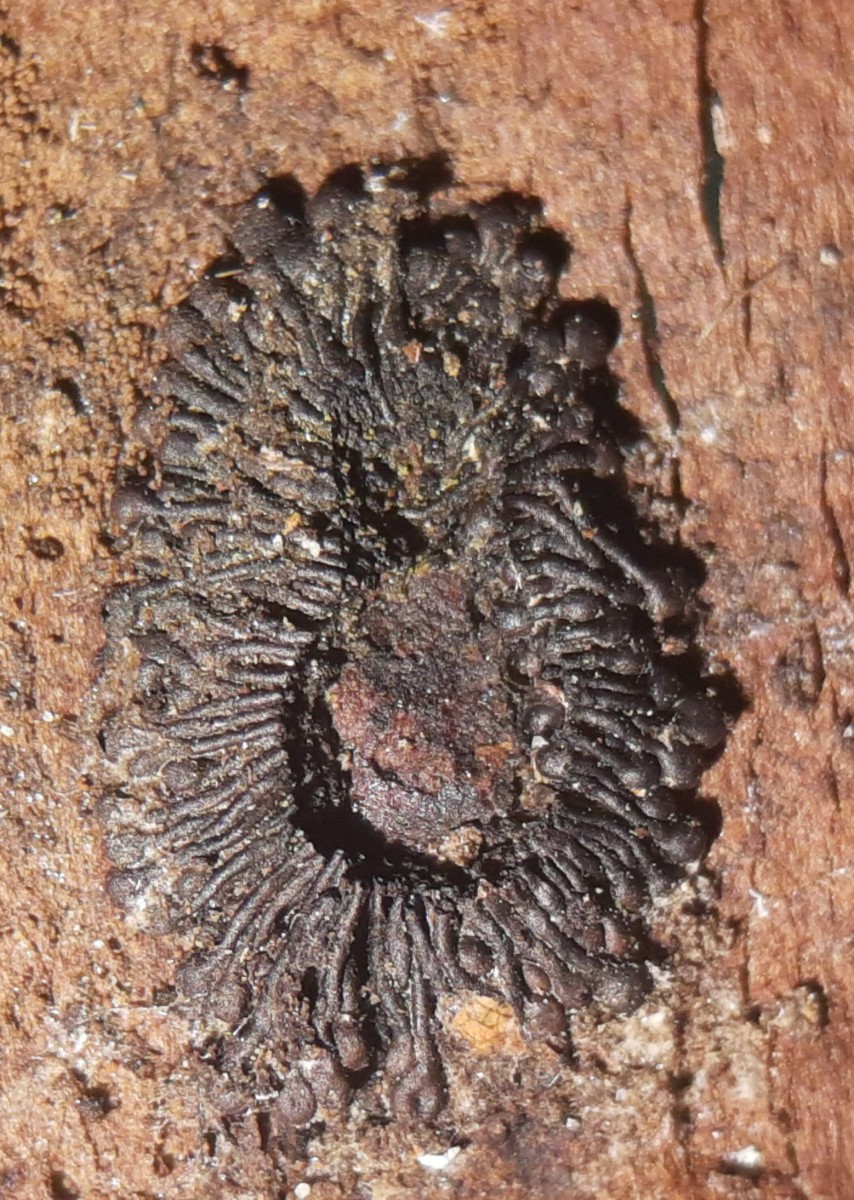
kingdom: Fungi
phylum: Ascomycota
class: Sordariomycetes
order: Calosphaeriales
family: Calosphaeriaceae
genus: Calosphaeria
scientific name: Calosphaeria pulchella
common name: smuk slyngkerne
